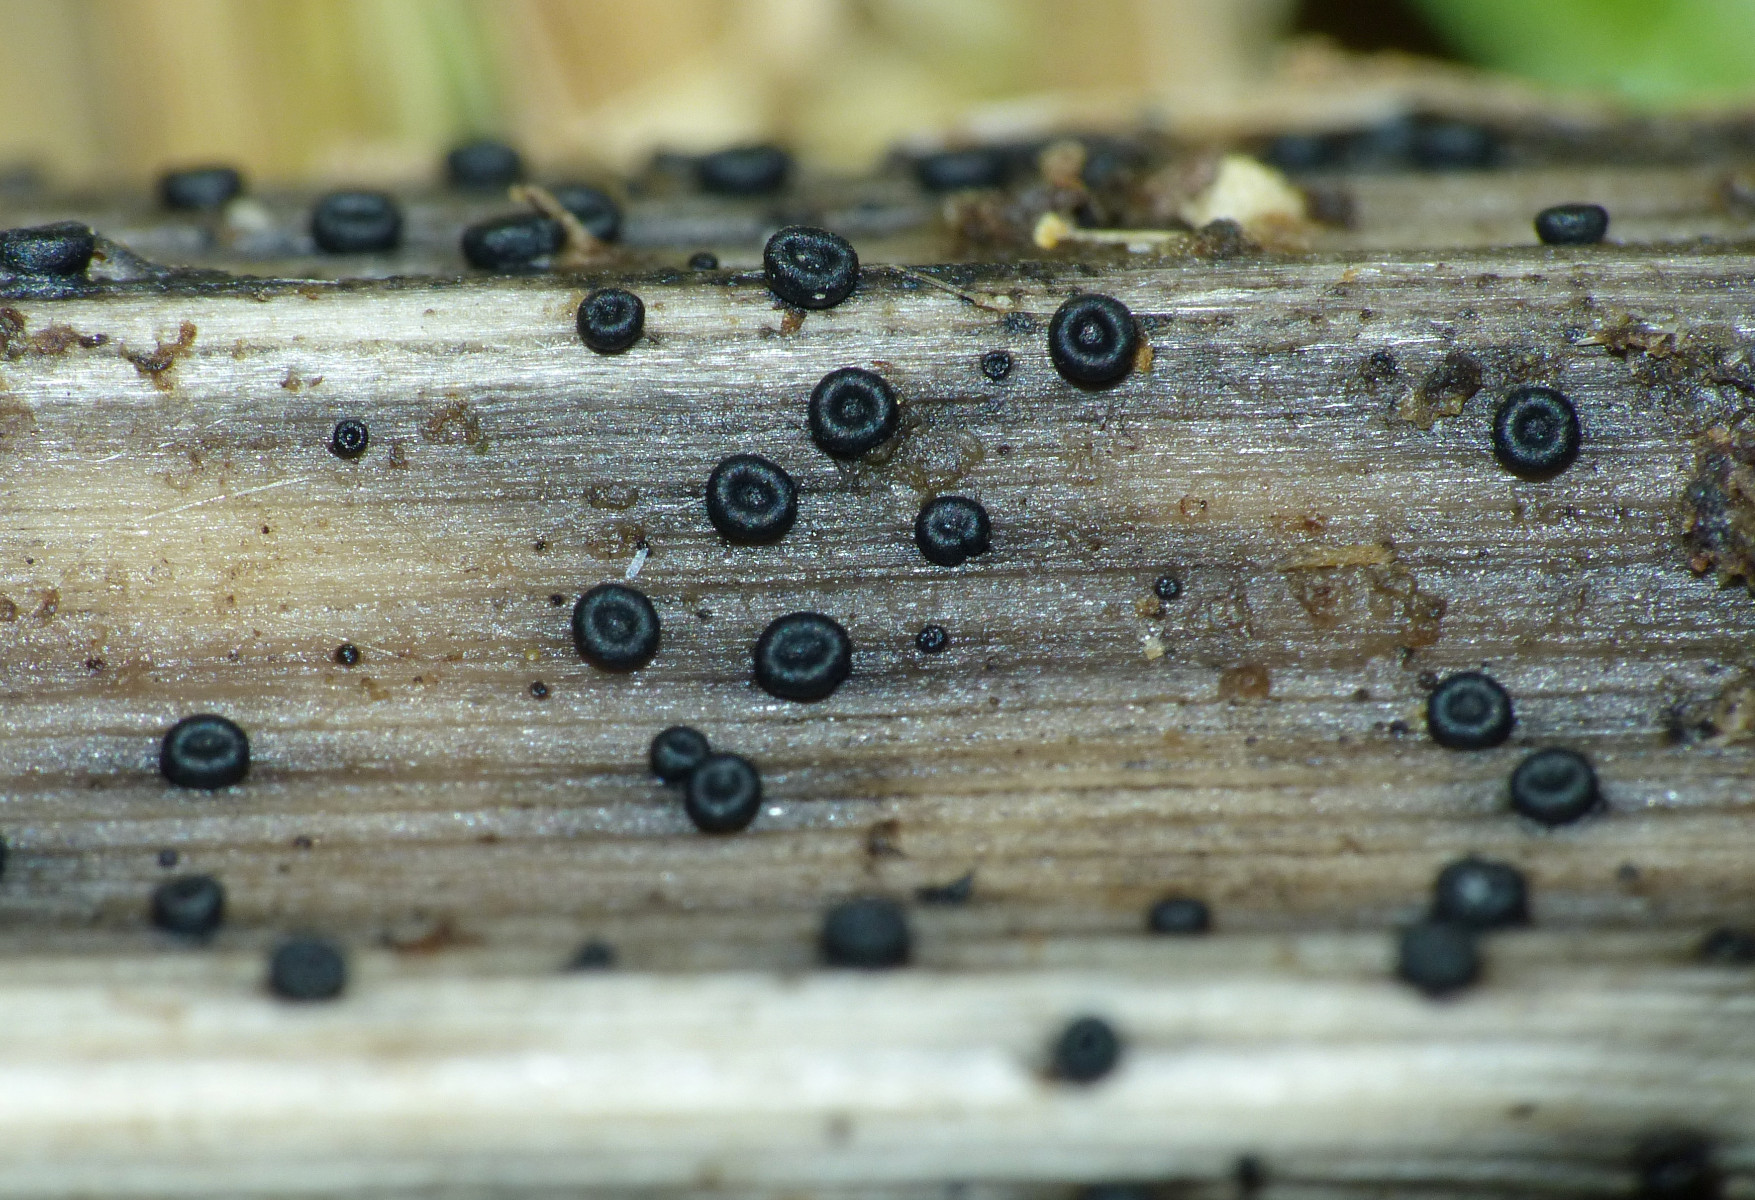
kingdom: Fungi
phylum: Ascomycota
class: Leotiomycetes
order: Helotiales
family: Heterosphaeriaceae
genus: Heterosphaeria
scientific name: Heterosphaeria
